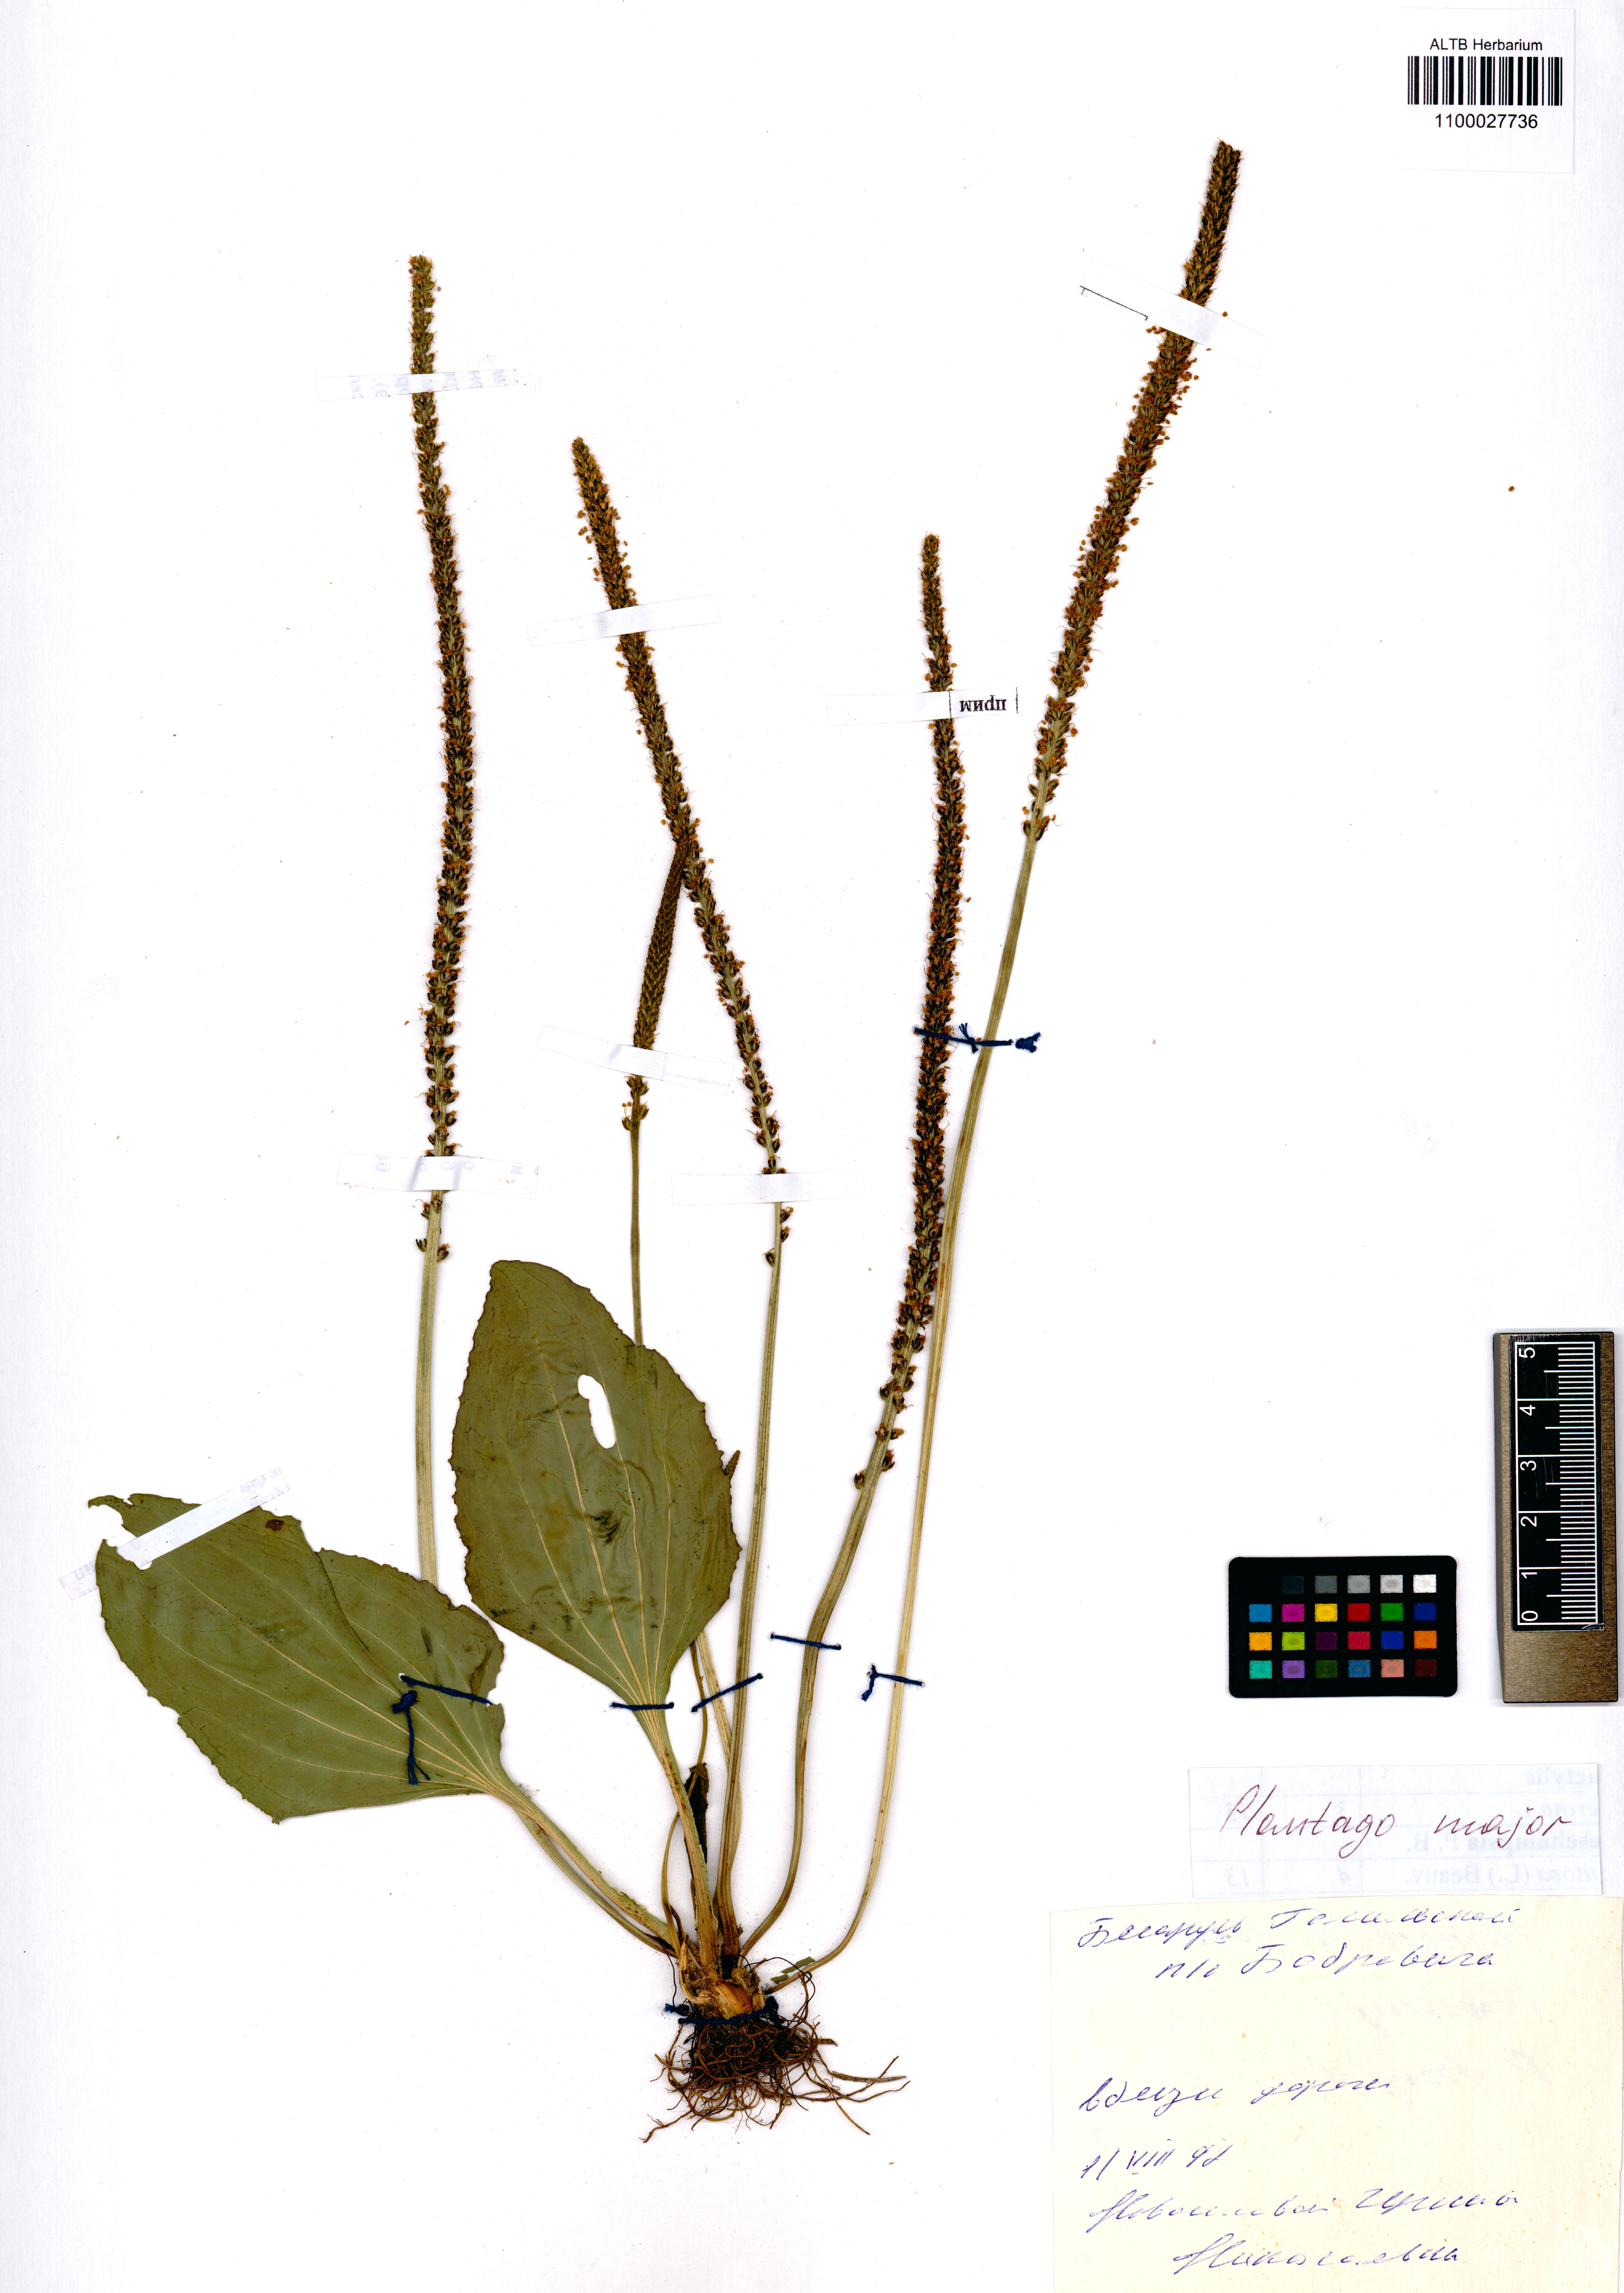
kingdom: Plantae
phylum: Tracheophyta
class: Magnoliopsida
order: Lamiales
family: Plantaginaceae
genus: Plantago
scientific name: Plantago major
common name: Common plantain
